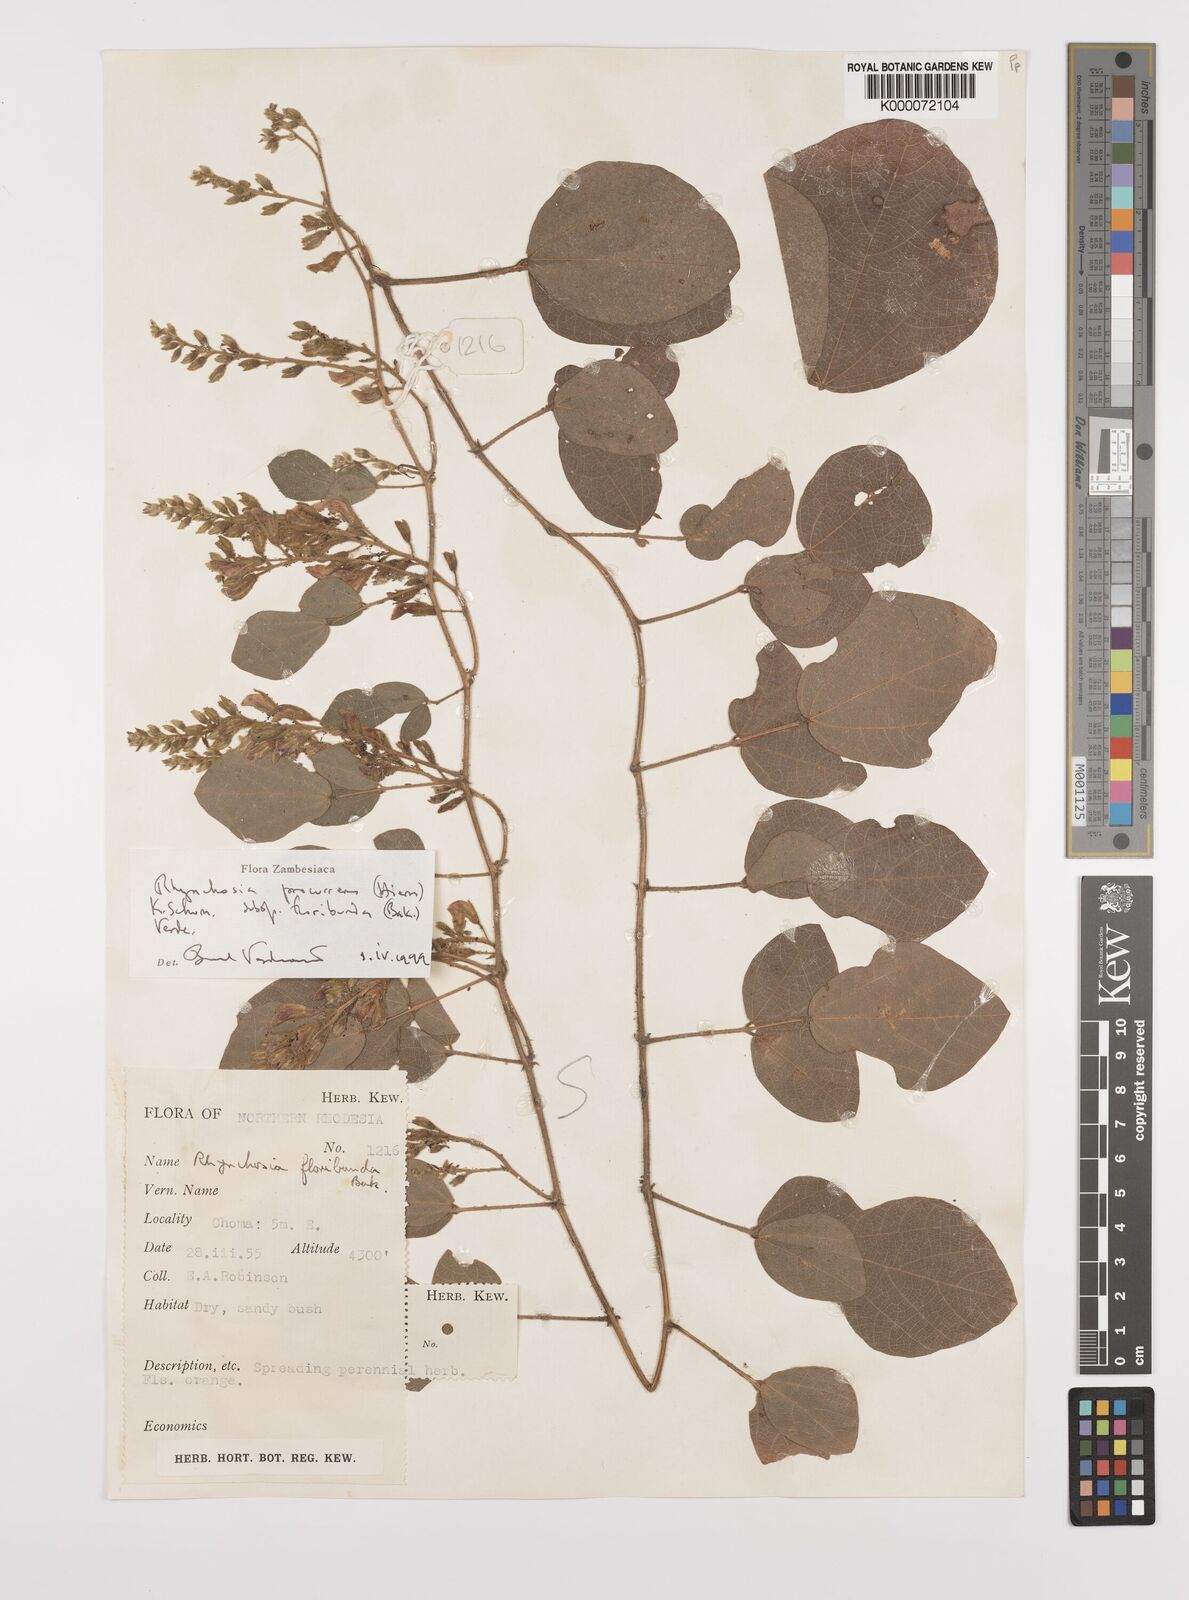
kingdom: Plantae
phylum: Tracheophyta
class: Magnoliopsida
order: Fabales
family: Fabaceae
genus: Rhynchosia
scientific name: Rhynchosia procurrens
